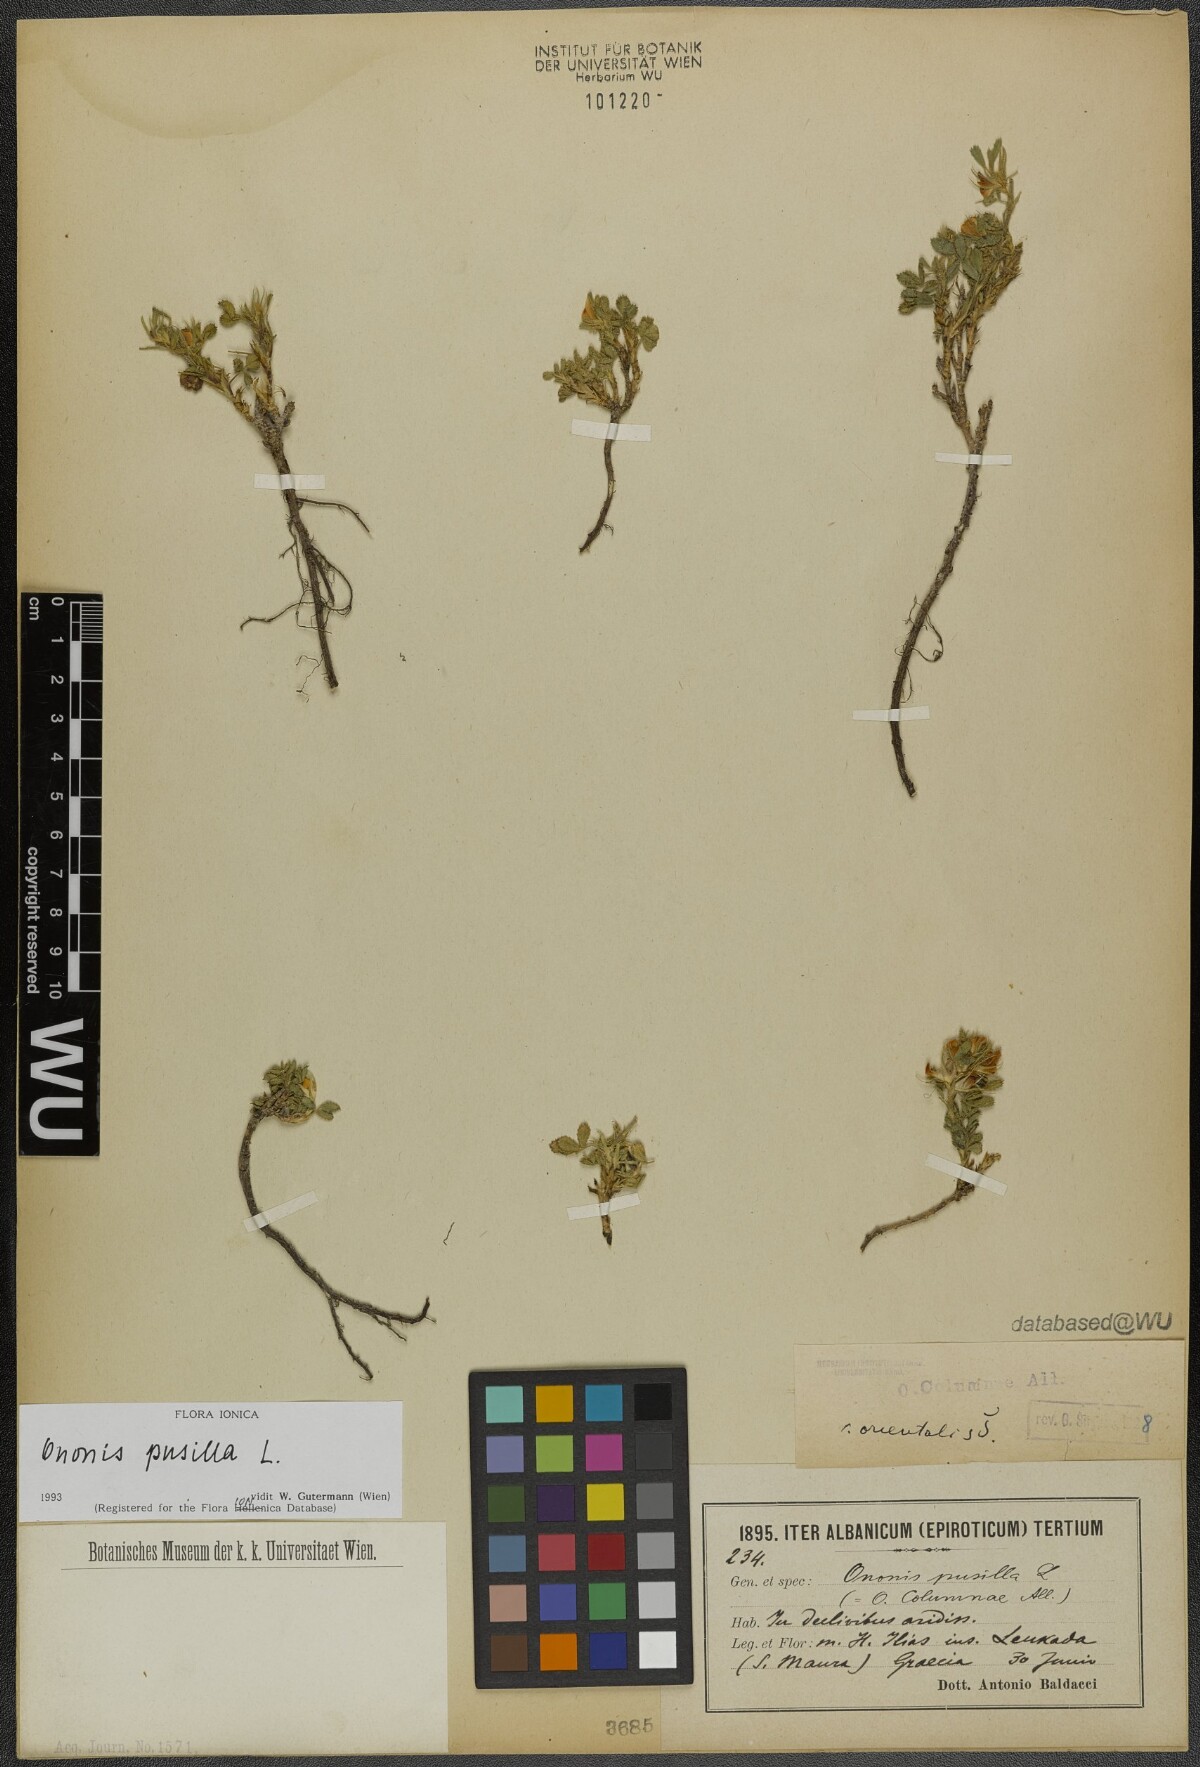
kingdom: Plantae
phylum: Tracheophyta
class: Magnoliopsida
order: Fabales
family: Fabaceae
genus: Ononis
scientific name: Ononis pusilla
